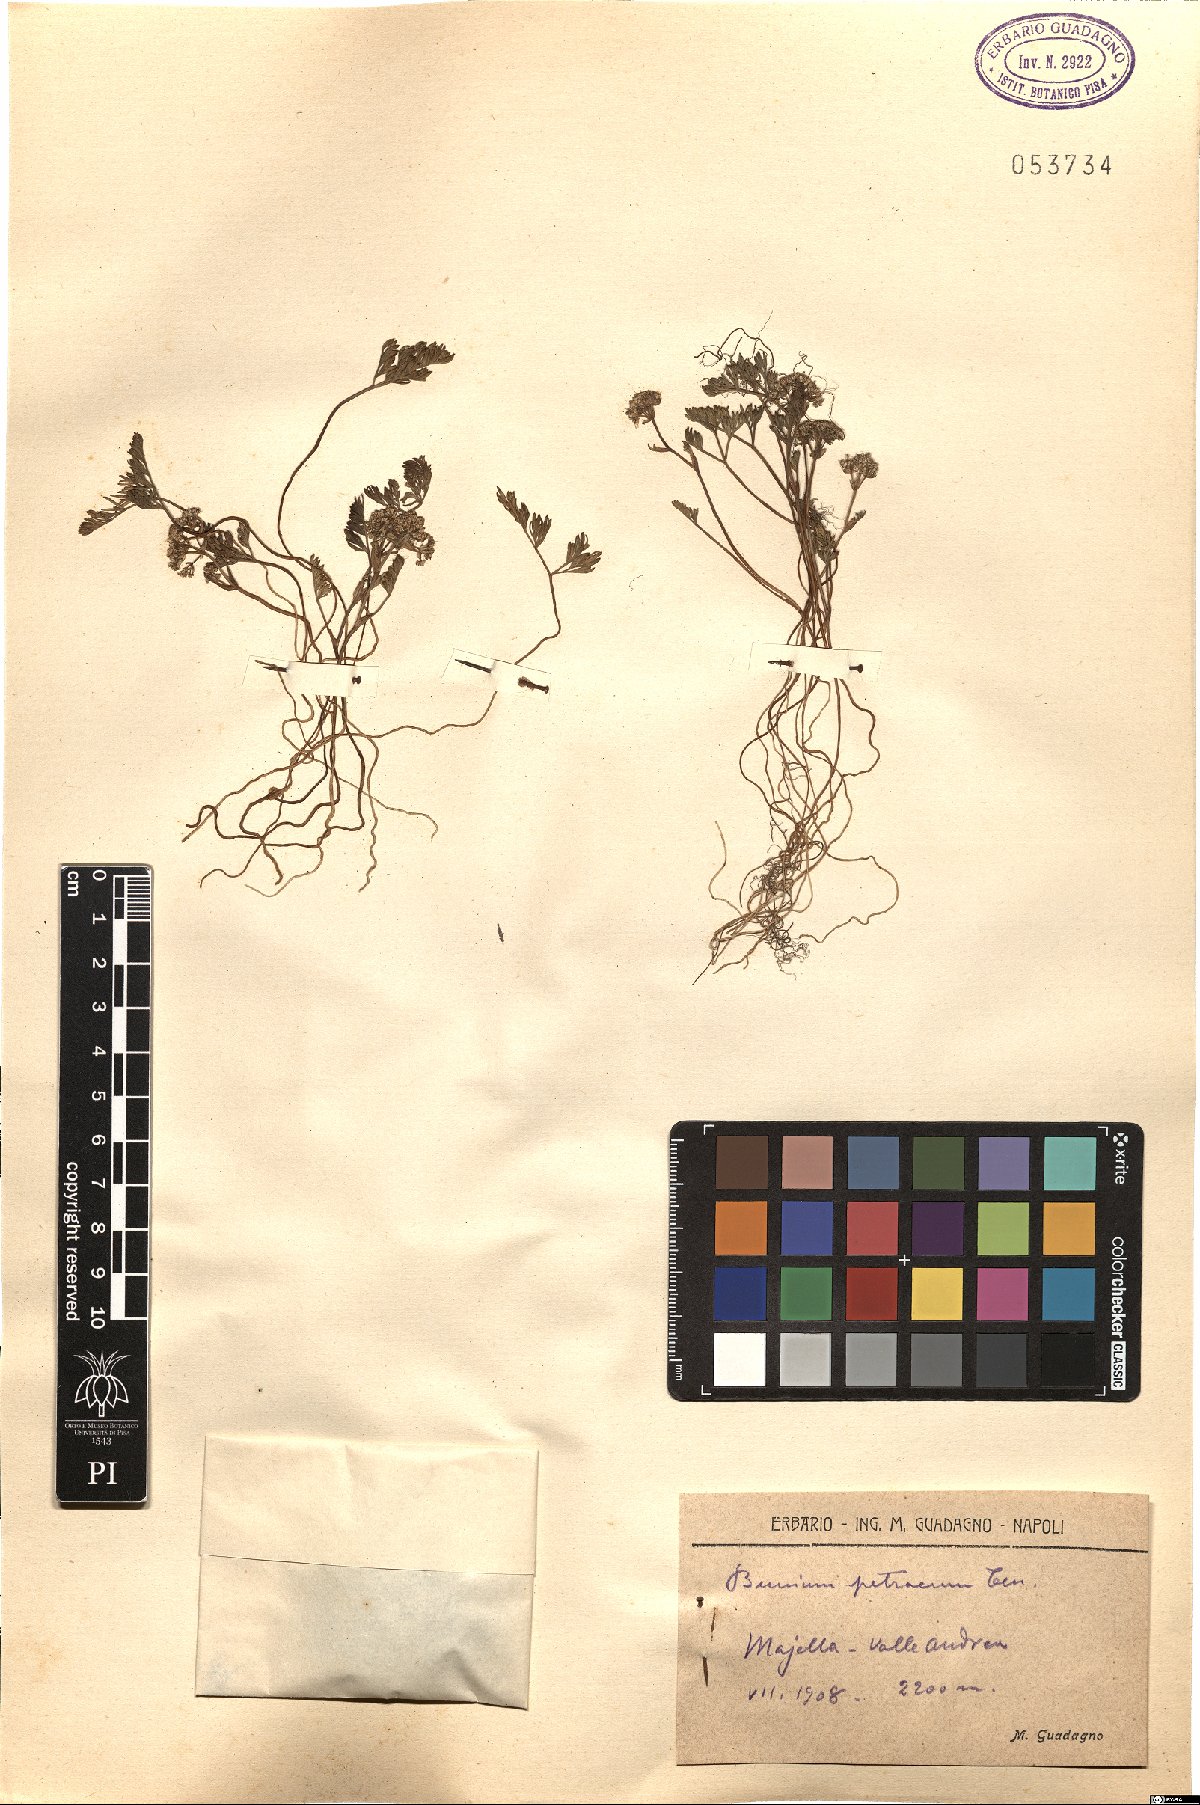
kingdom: Plantae
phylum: Tracheophyta
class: Magnoliopsida
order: Apiales
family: Apiaceae
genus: Bunium
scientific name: Bunium alpinum
